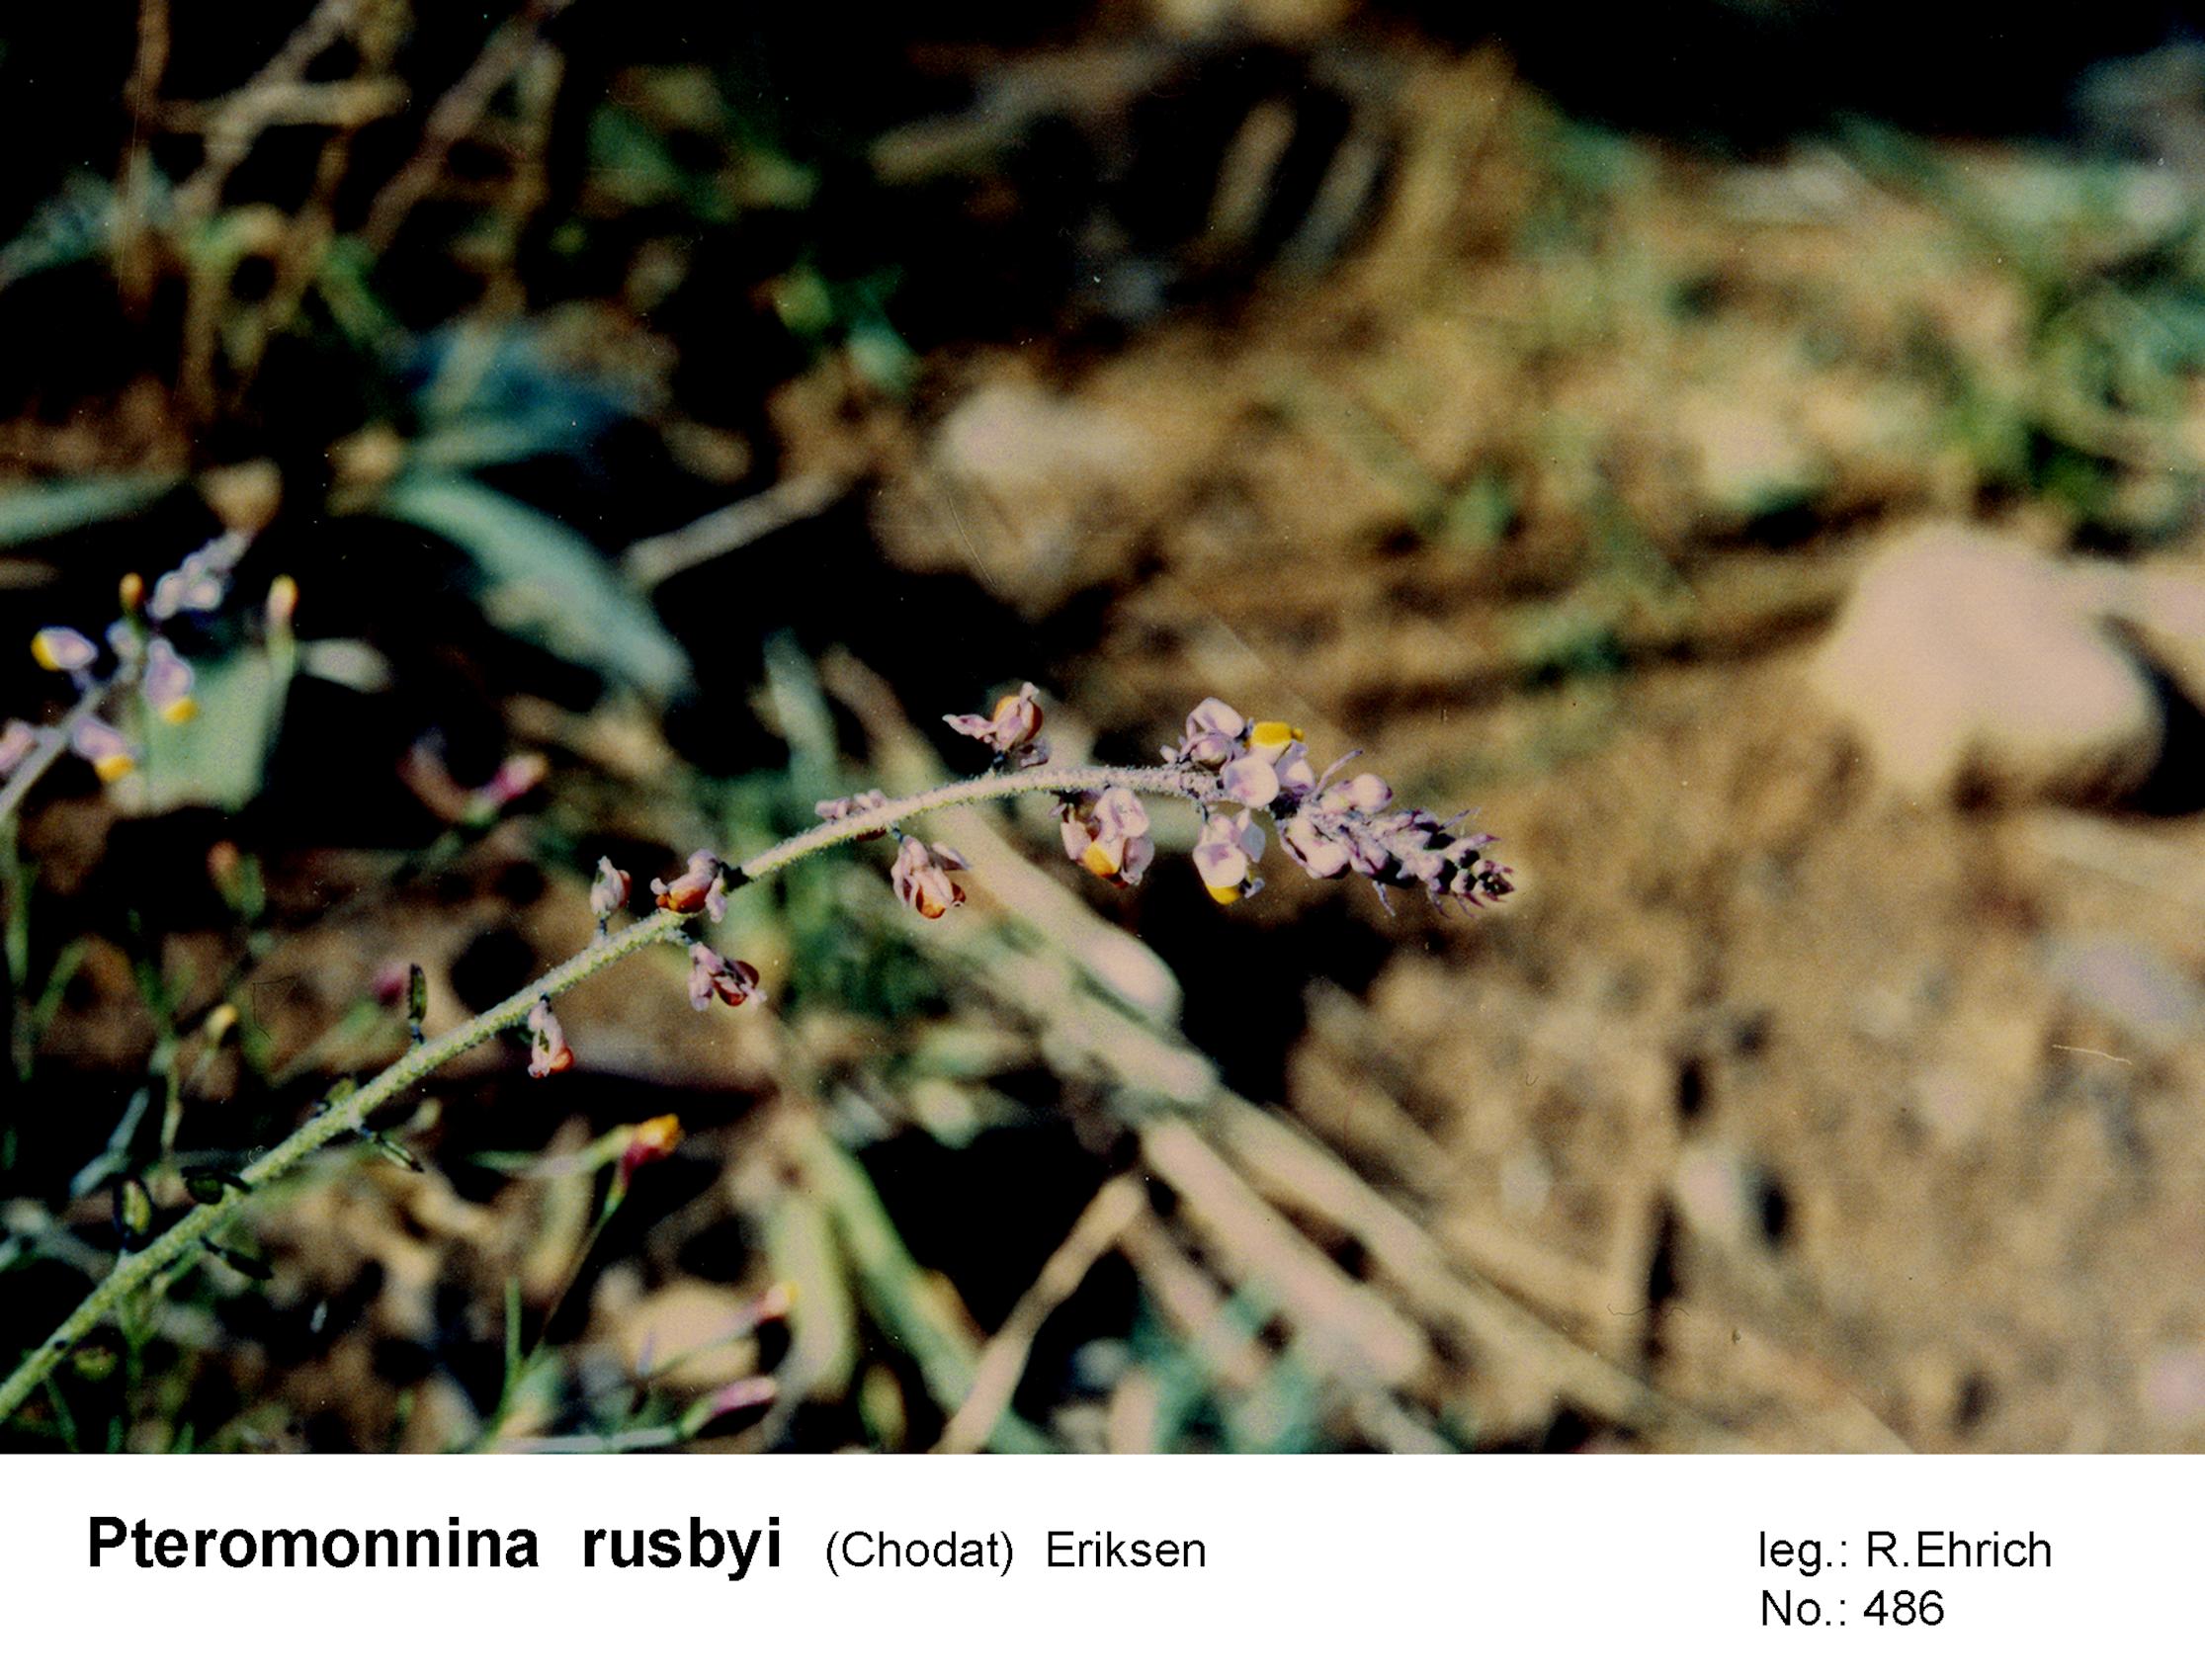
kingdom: Plantae
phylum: Tracheophyta
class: Magnoliopsida
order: Fabales
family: Polygalaceae
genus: Monnina
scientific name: Monnina rusbyi
